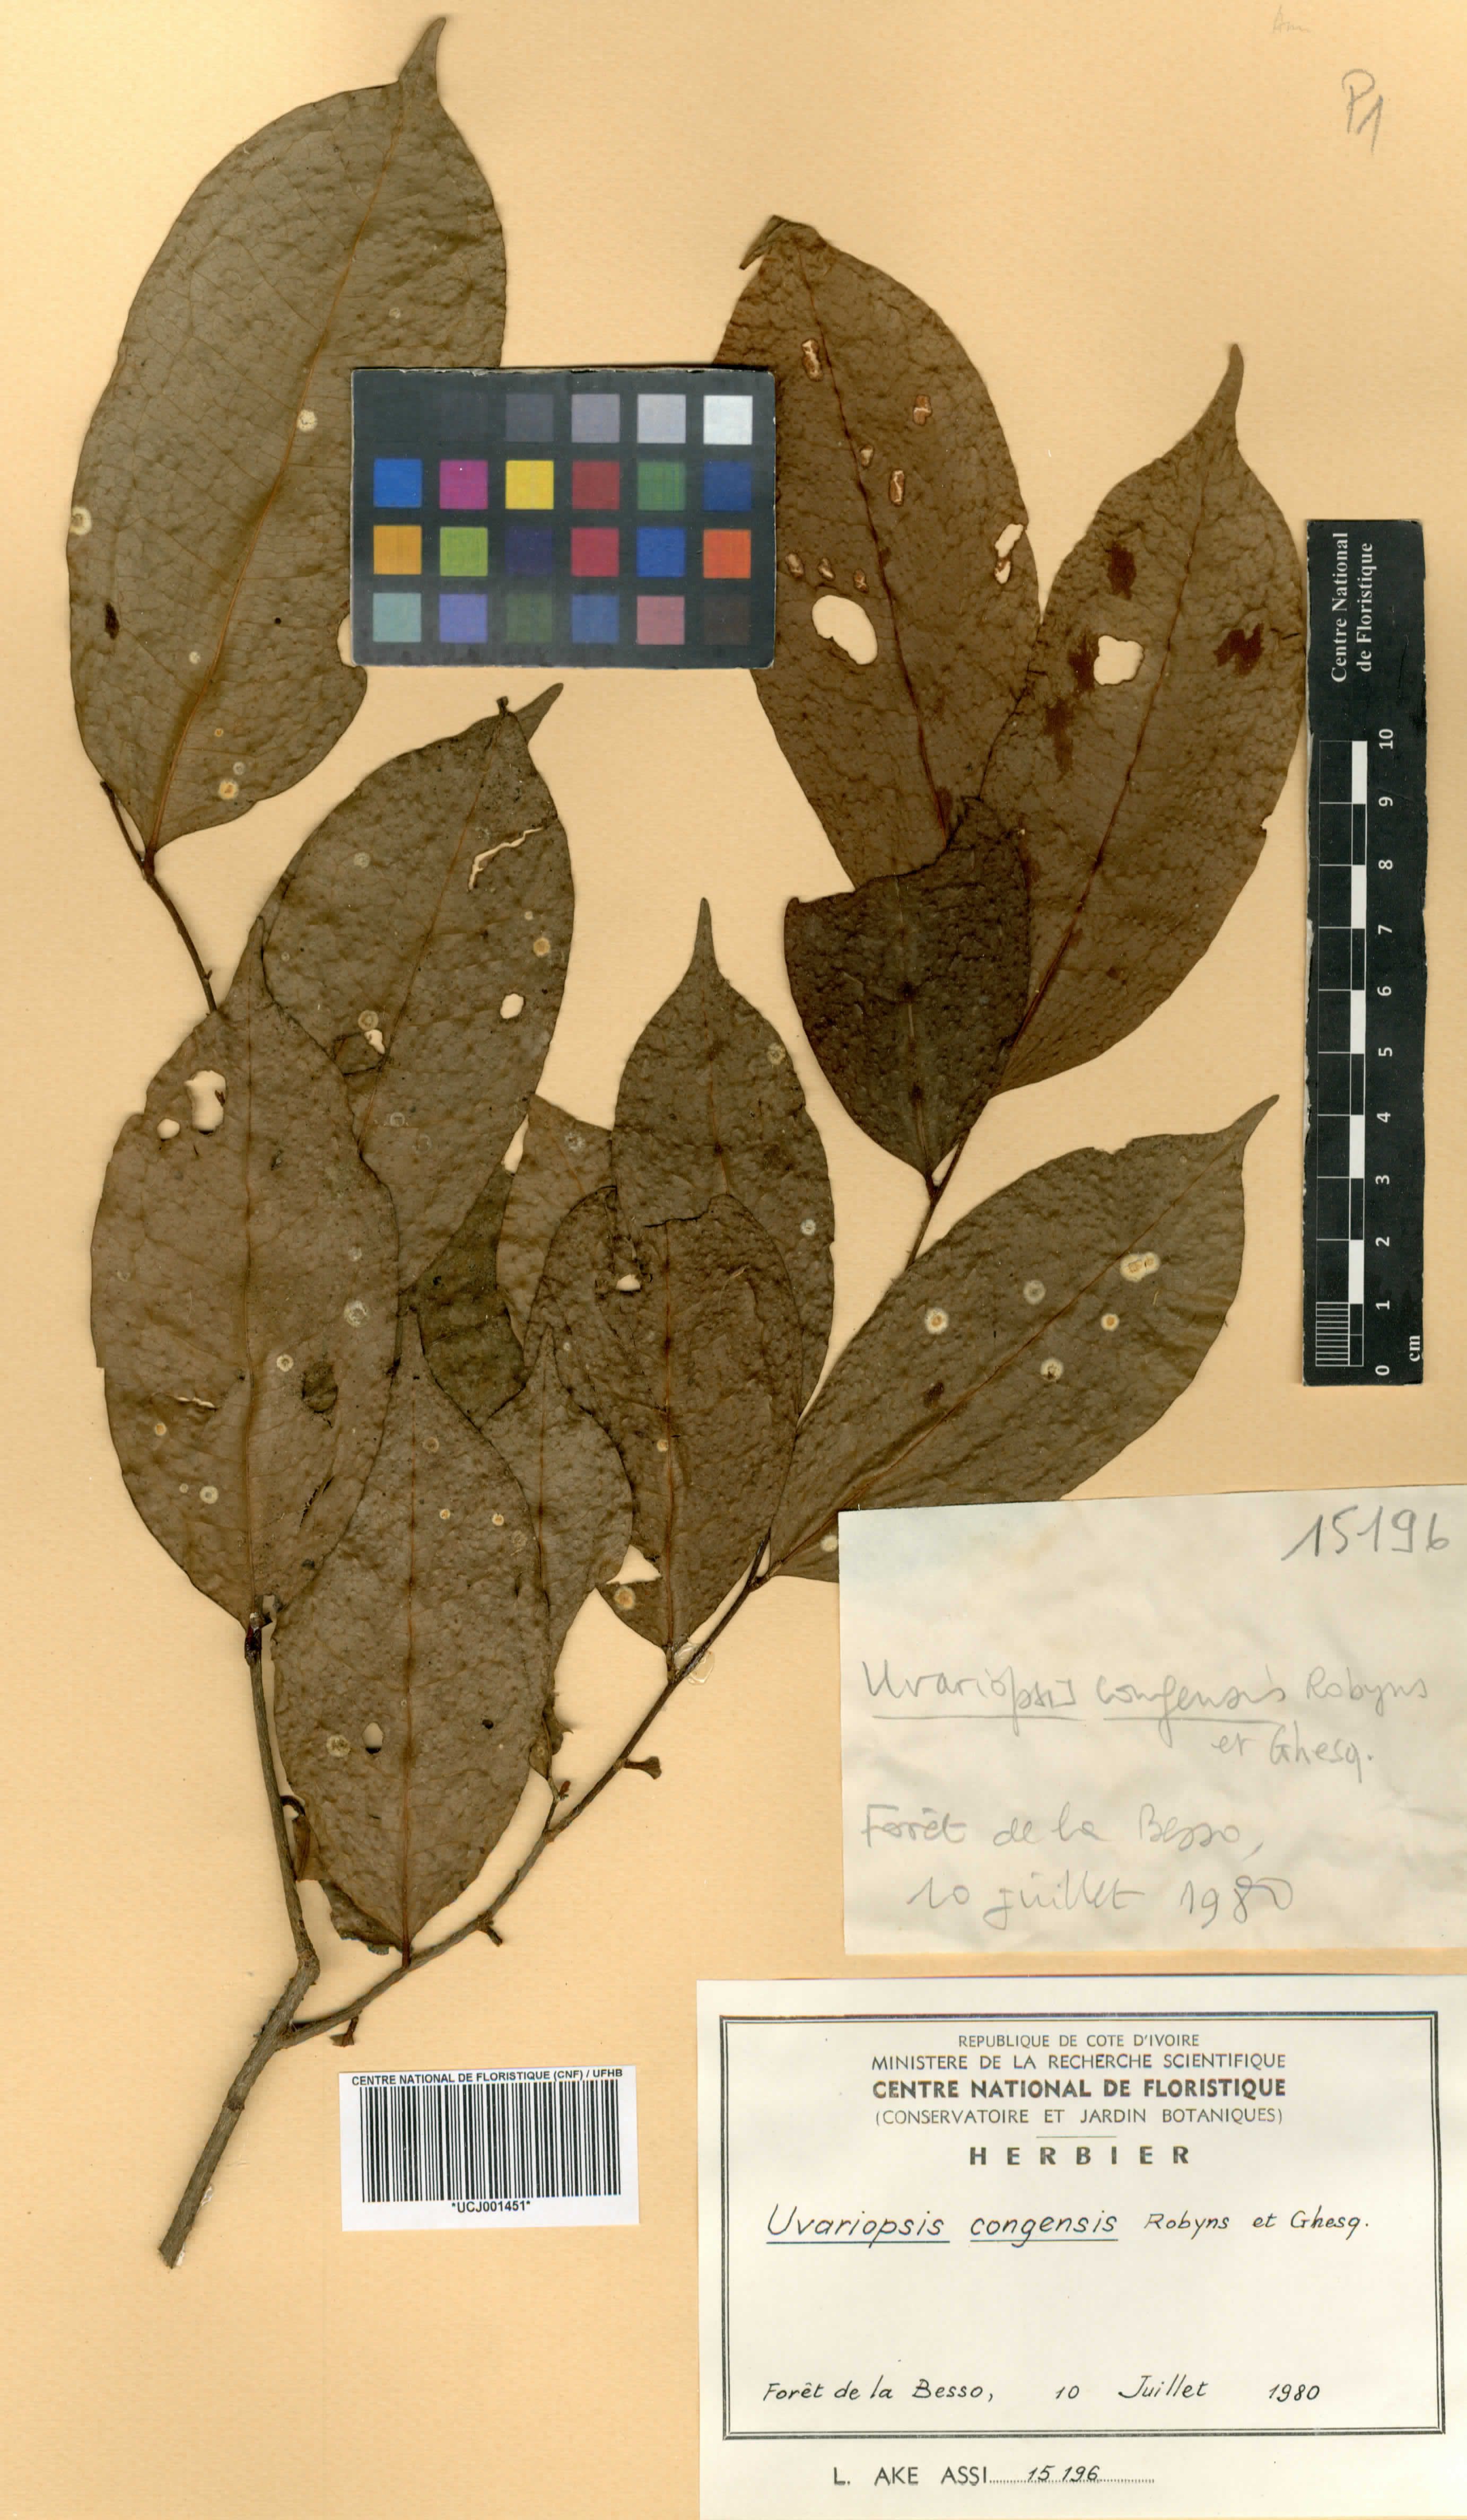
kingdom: Plantae
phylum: Tracheophyta
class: Magnoliopsida
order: Magnoliales
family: Annonaceae
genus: Uvariopsis
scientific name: Uvariopsis congensis
